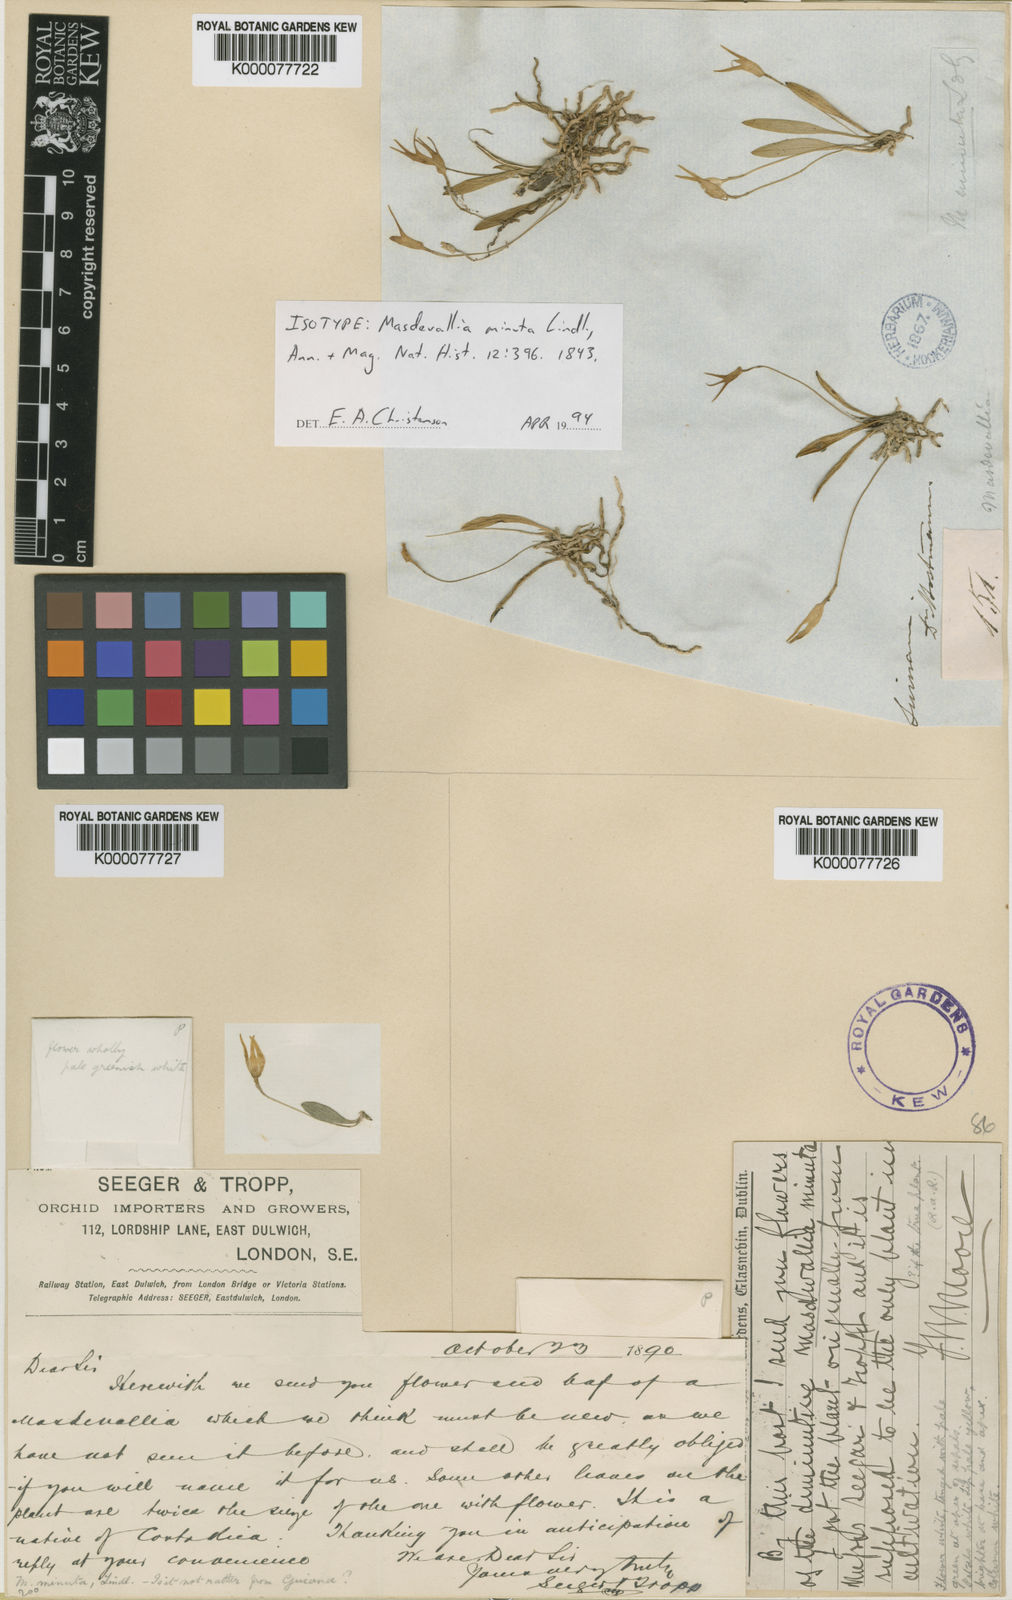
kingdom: Plantae
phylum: Tracheophyta
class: Liliopsida
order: Asparagales
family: Orchidaceae
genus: Masdevallia
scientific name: Masdevallia minuta
